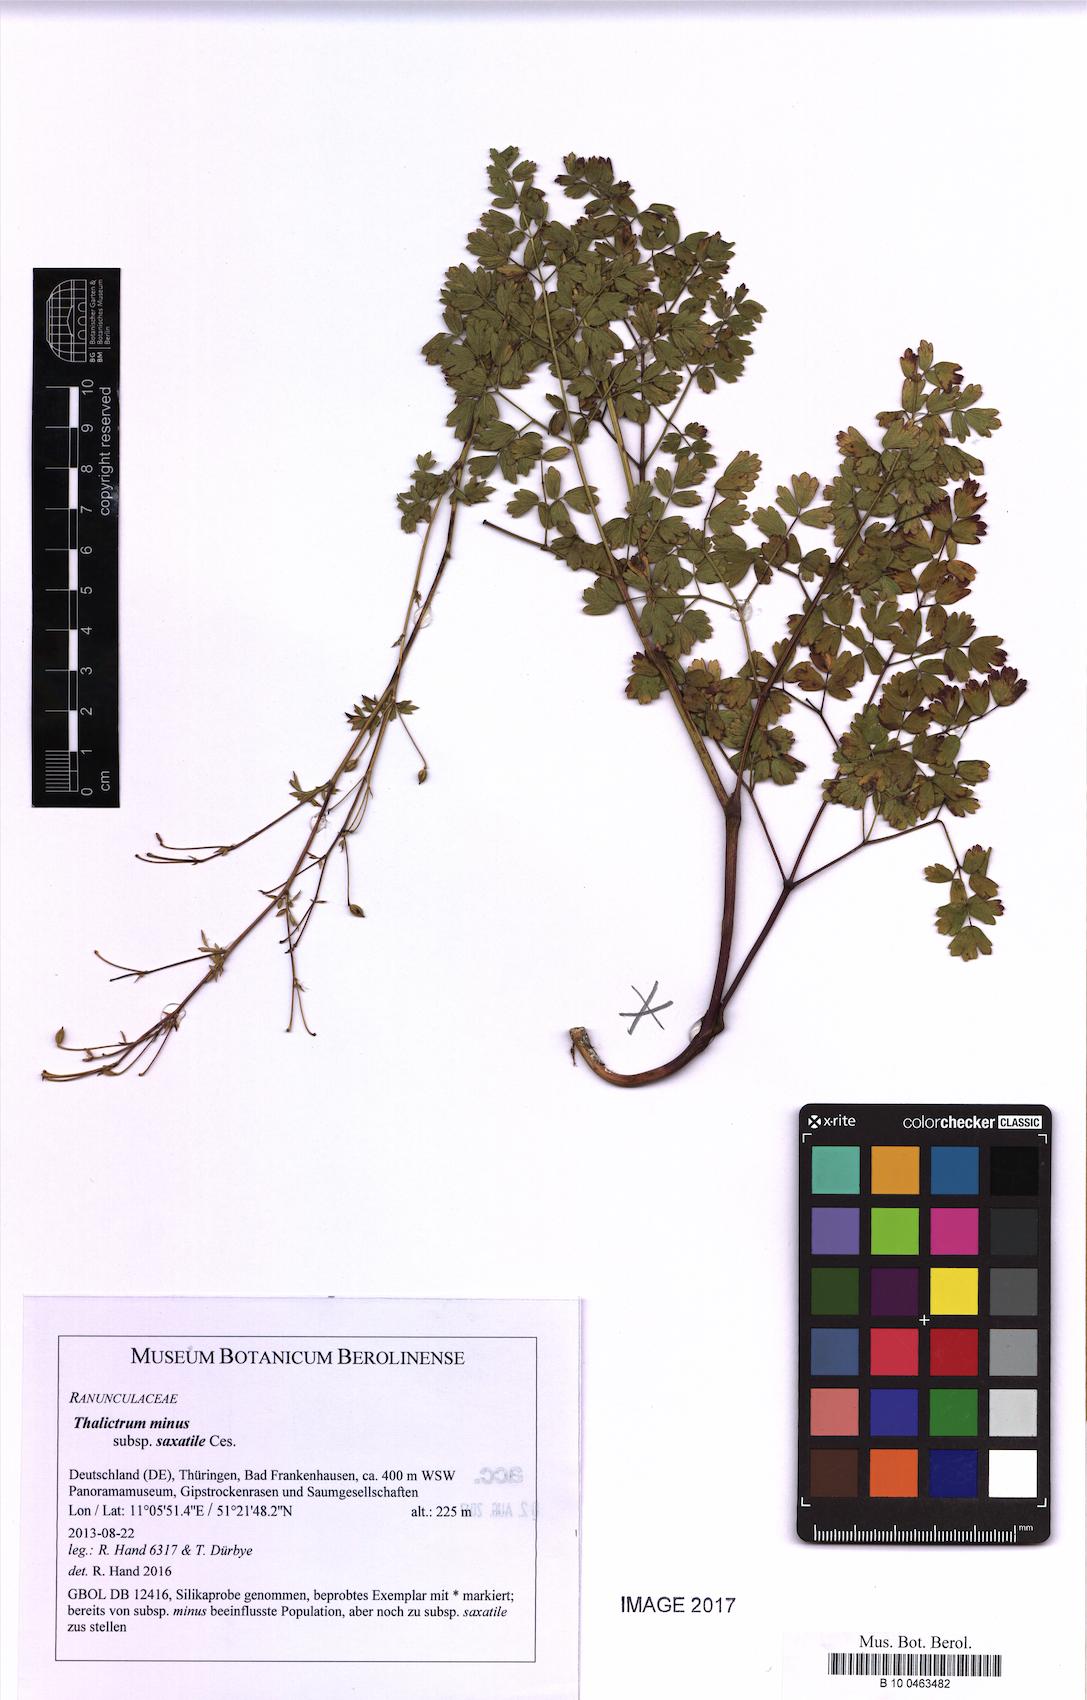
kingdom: Plantae
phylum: Tracheophyta
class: Magnoliopsida
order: Ranunculales
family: Ranunculaceae
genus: Thalictrum
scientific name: Thalictrum minus
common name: Lesser meadow-rue
